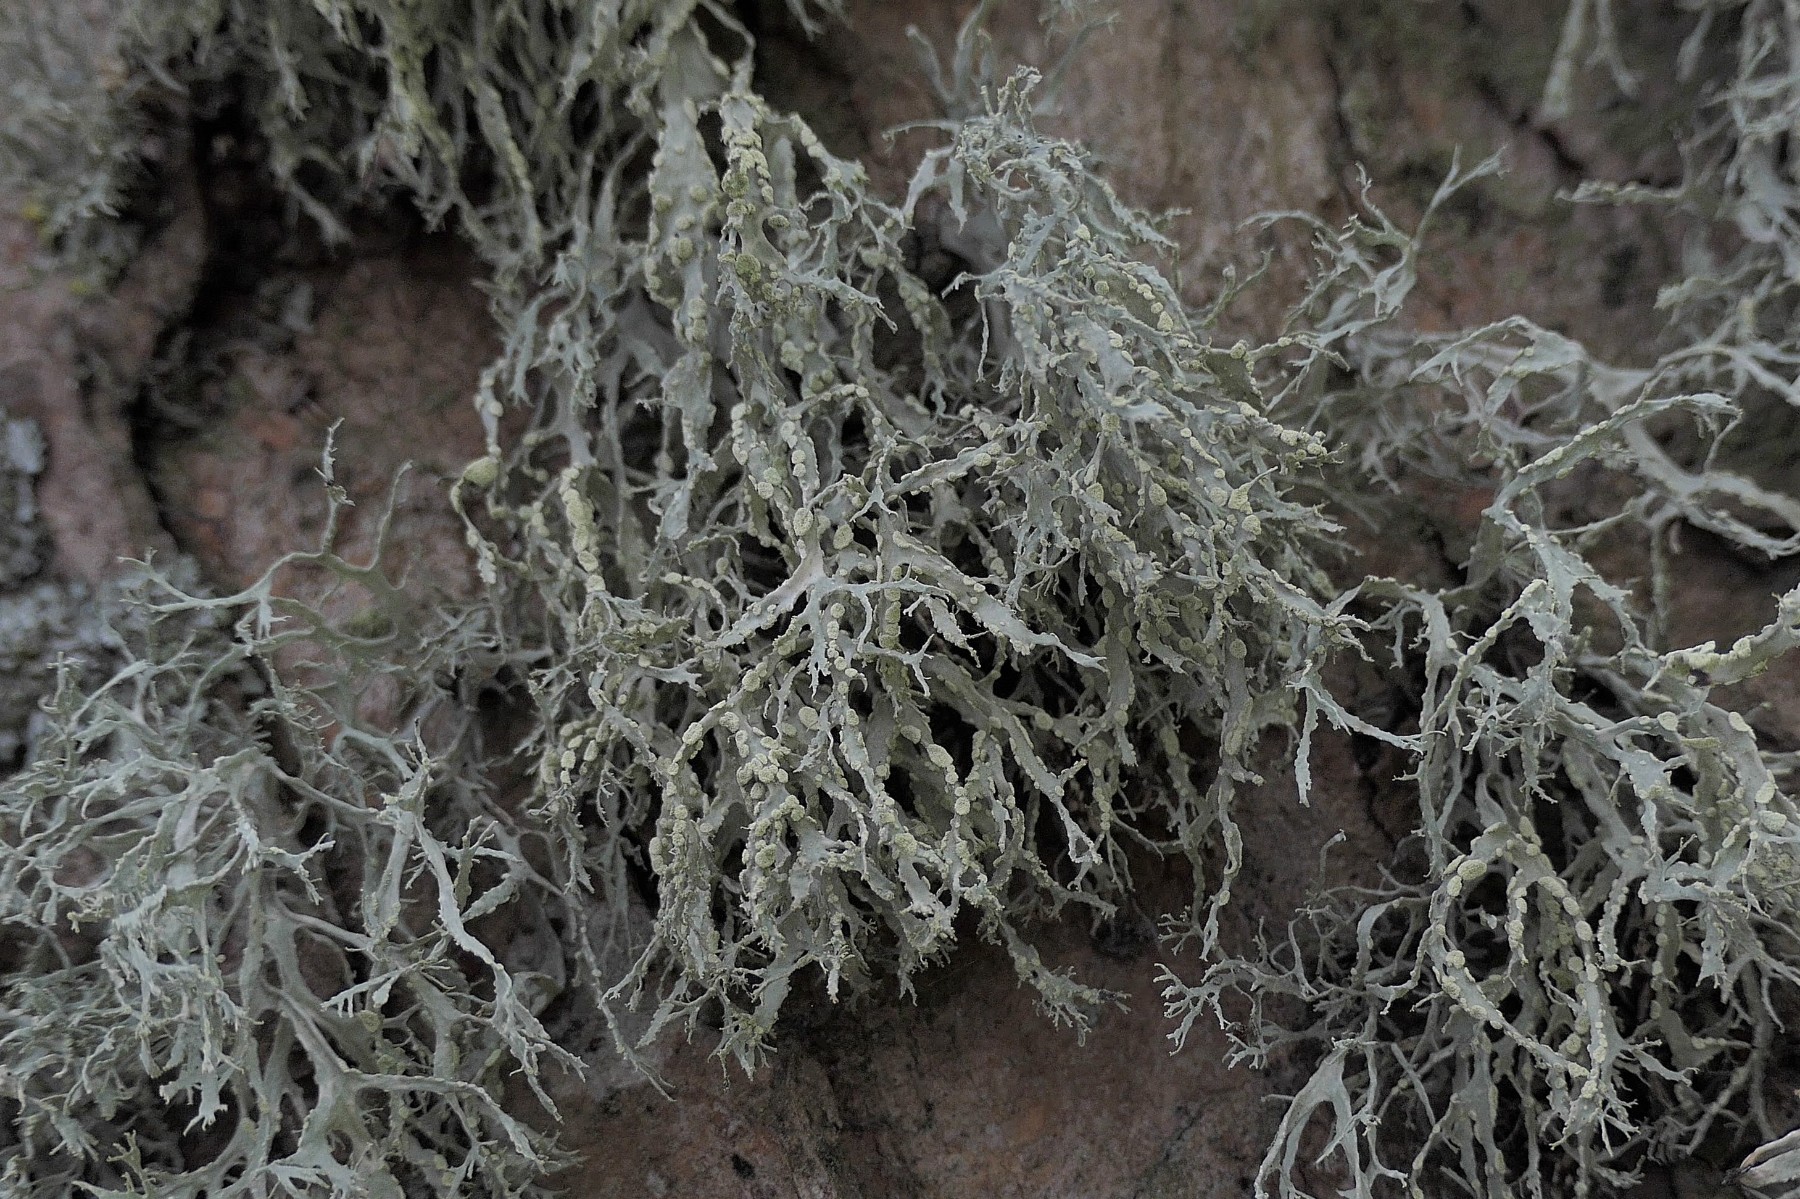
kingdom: Fungi
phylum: Ascomycota
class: Lecanoromycetes
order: Lecanorales
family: Ramalinaceae
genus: Ramalina
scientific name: Ramalina farinacea
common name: melet grenlav
